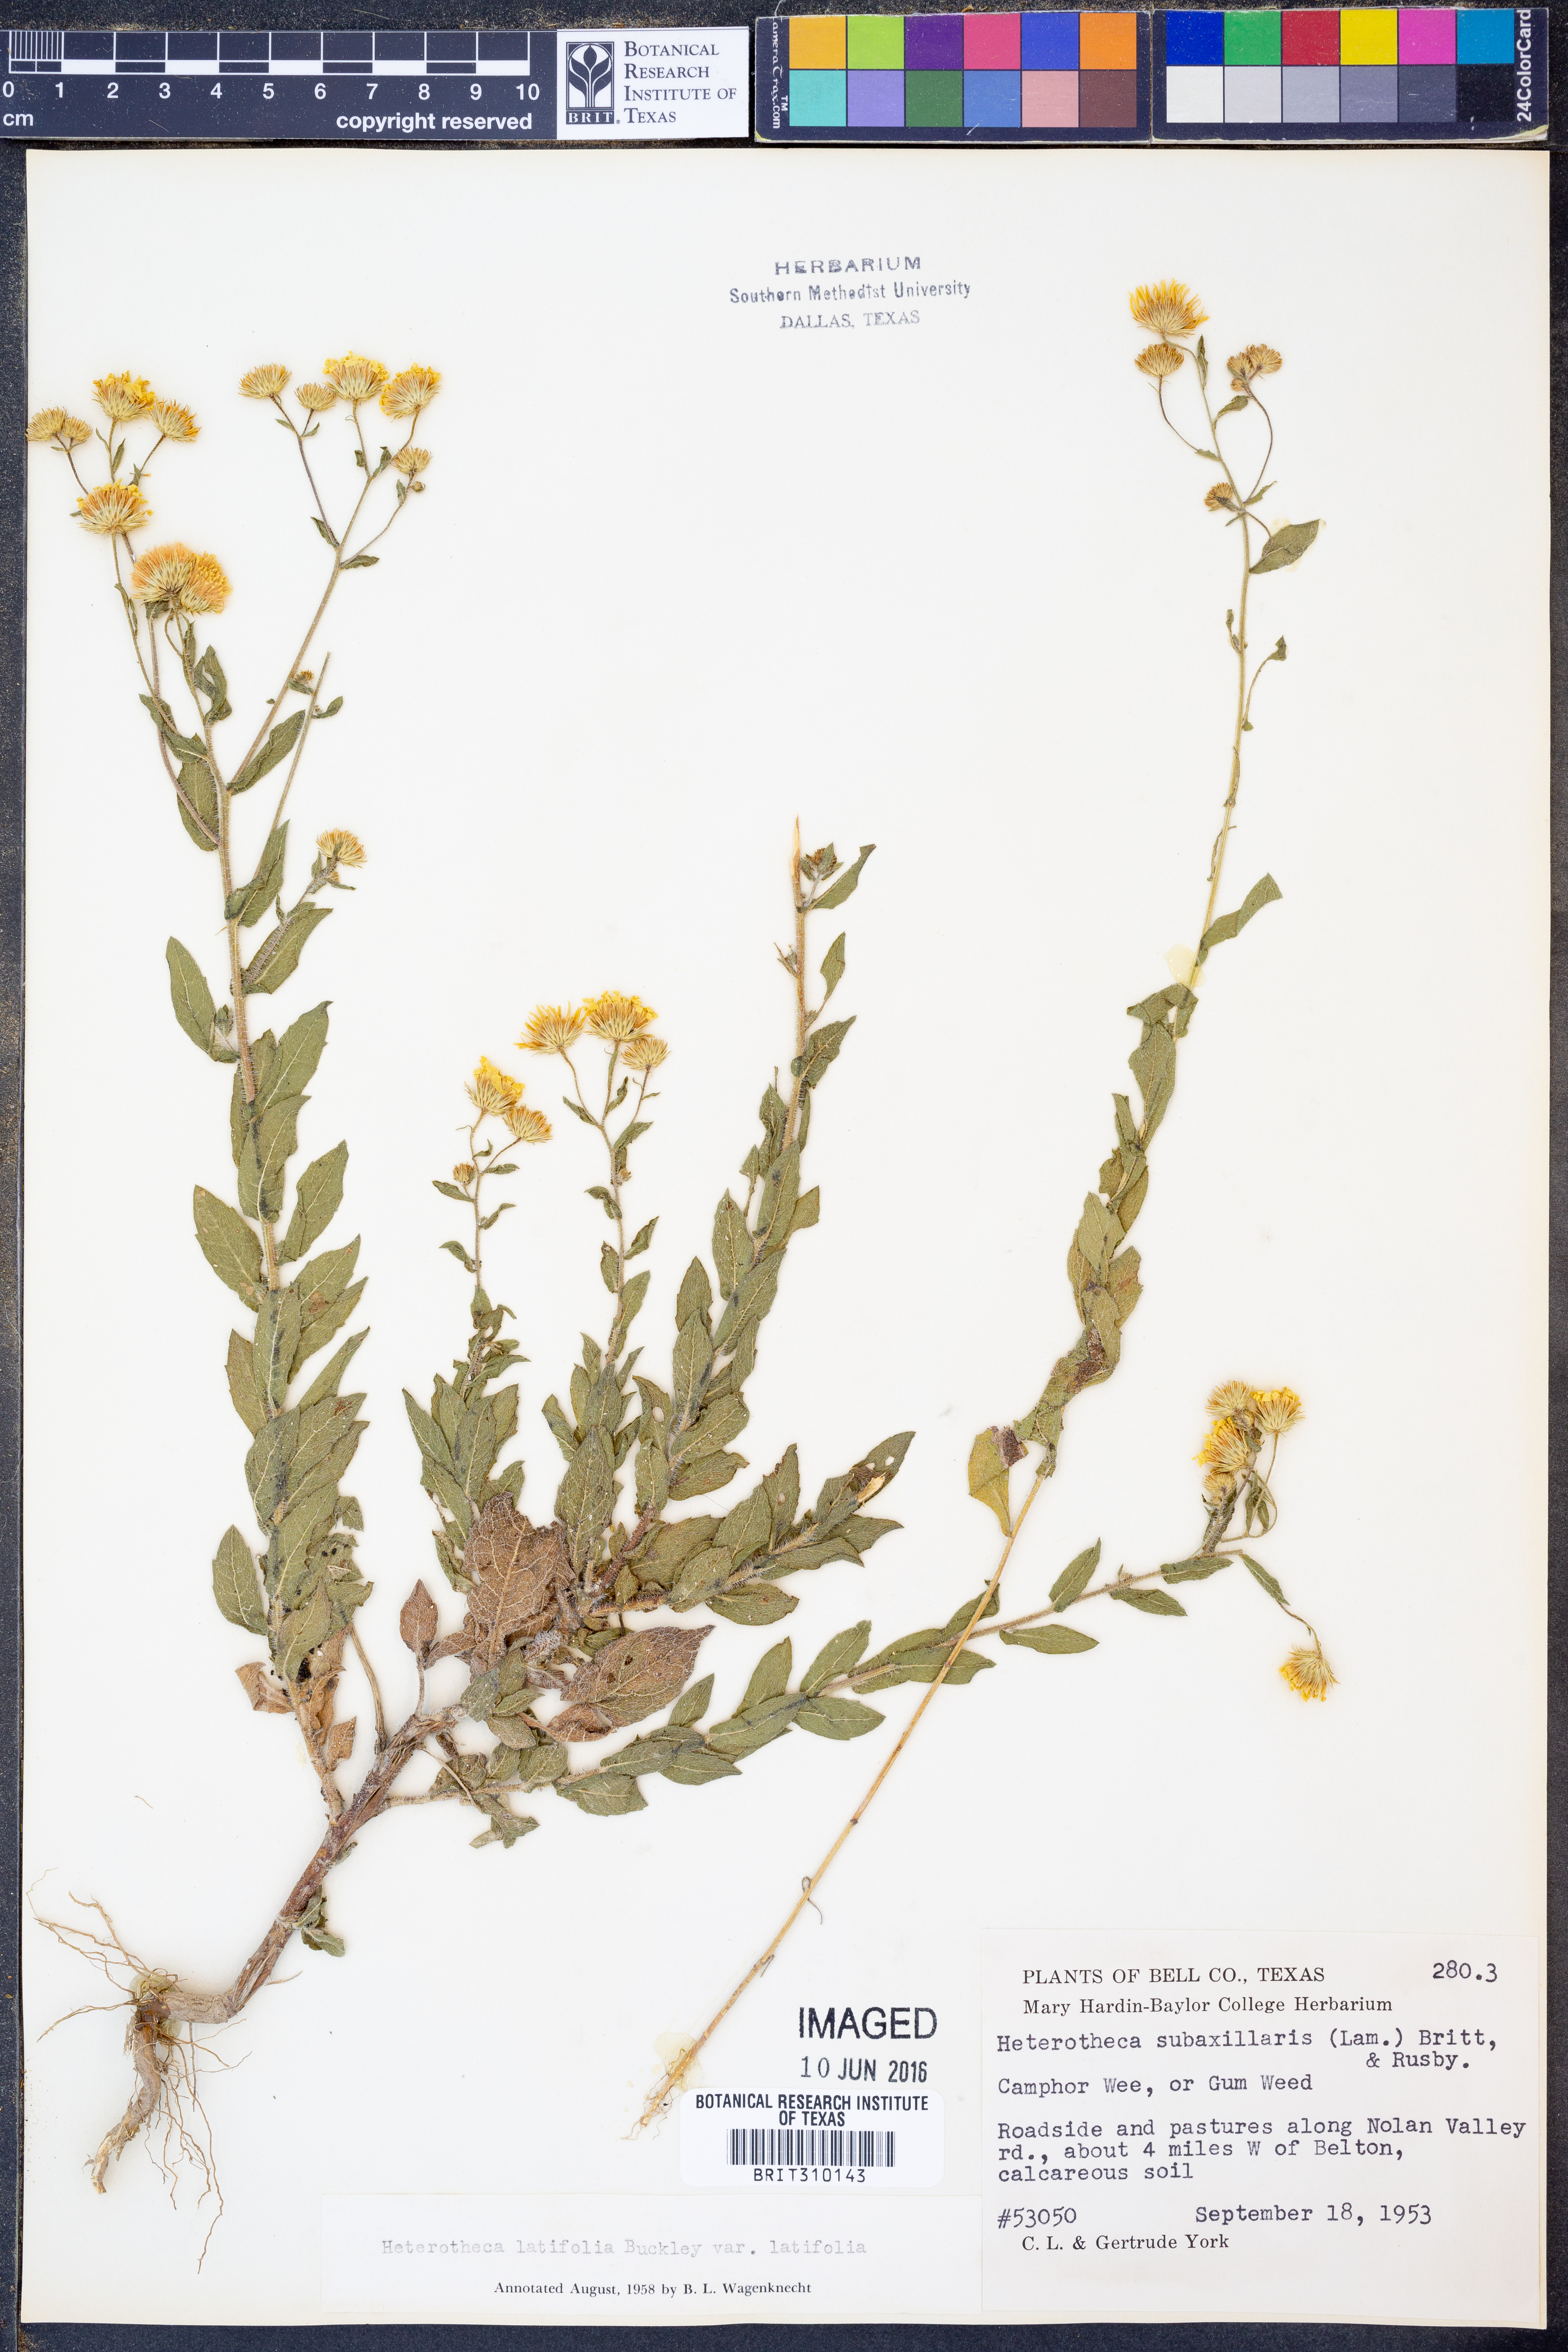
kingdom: Plantae
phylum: Tracheophyta
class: Magnoliopsida
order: Asterales
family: Asteraceae
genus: Heterotheca
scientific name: Heterotheca subaxillaris
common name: Camphorweed
